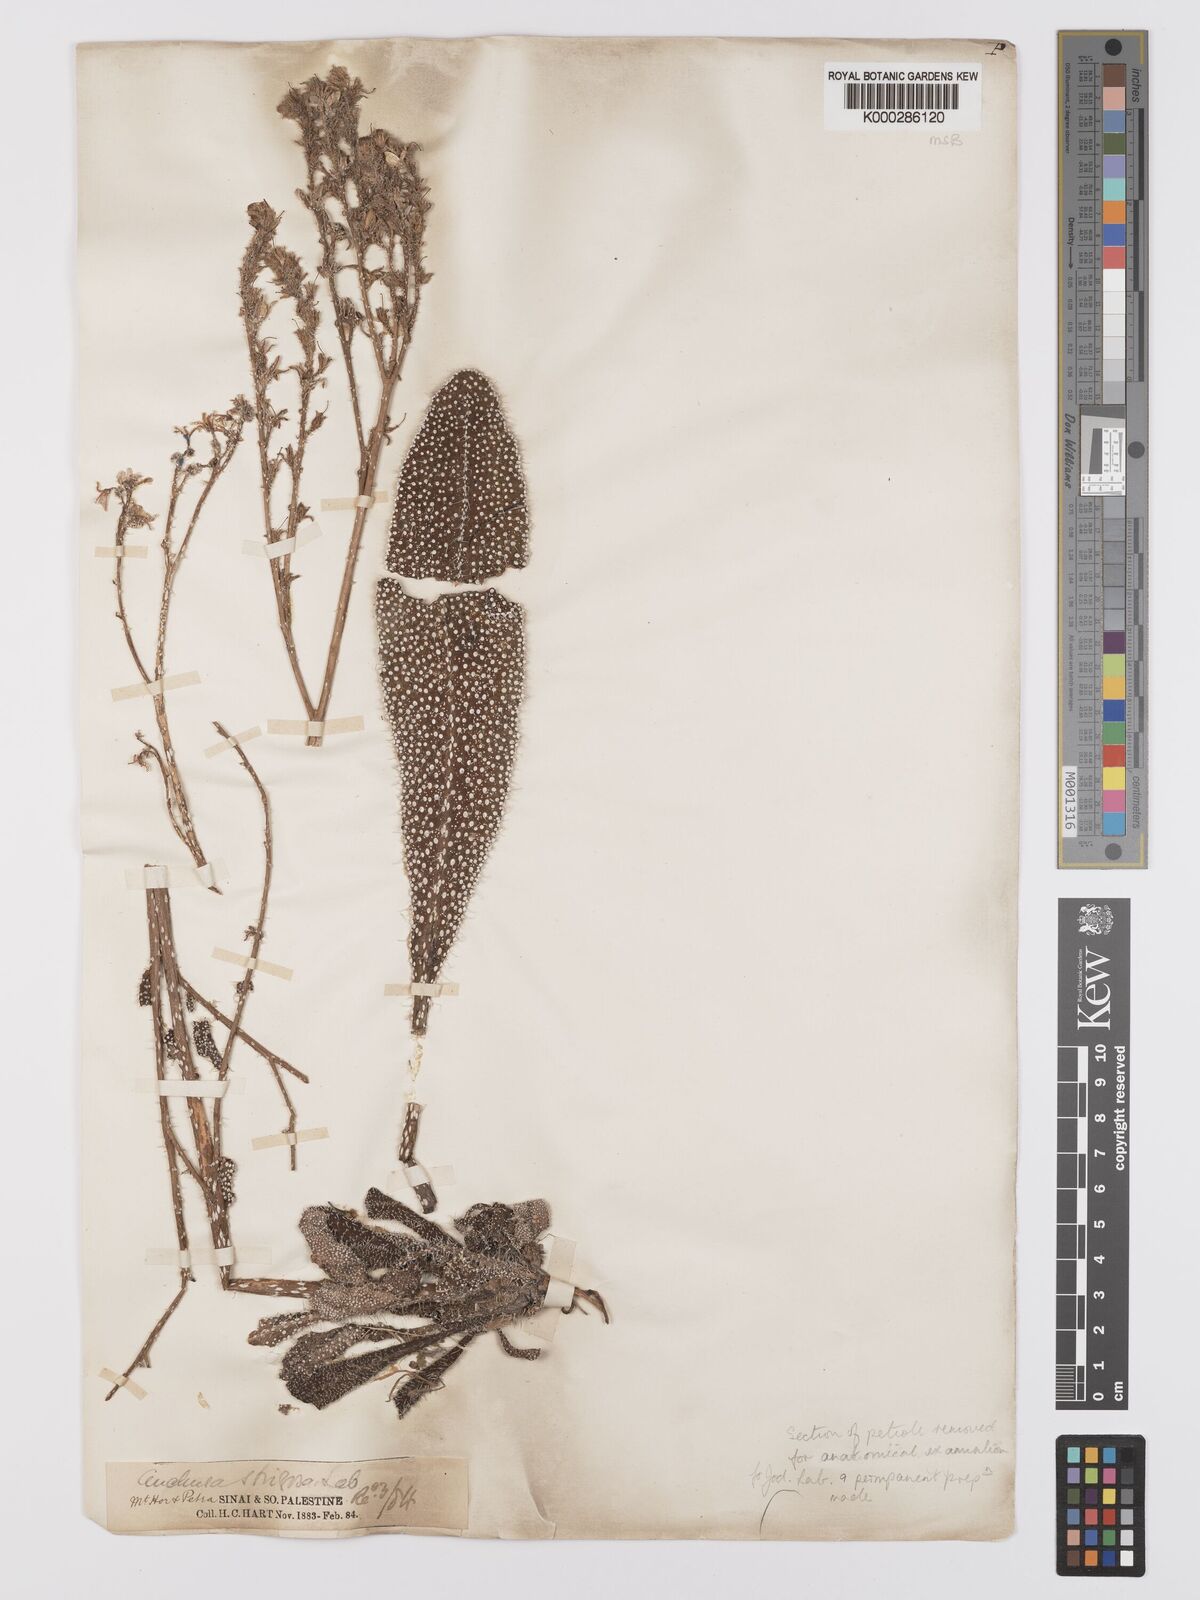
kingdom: Plantae
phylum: Tracheophyta
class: Magnoliopsida
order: Boraginales
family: Boraginaceae
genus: Anchusa
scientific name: Anchusa strigosa
